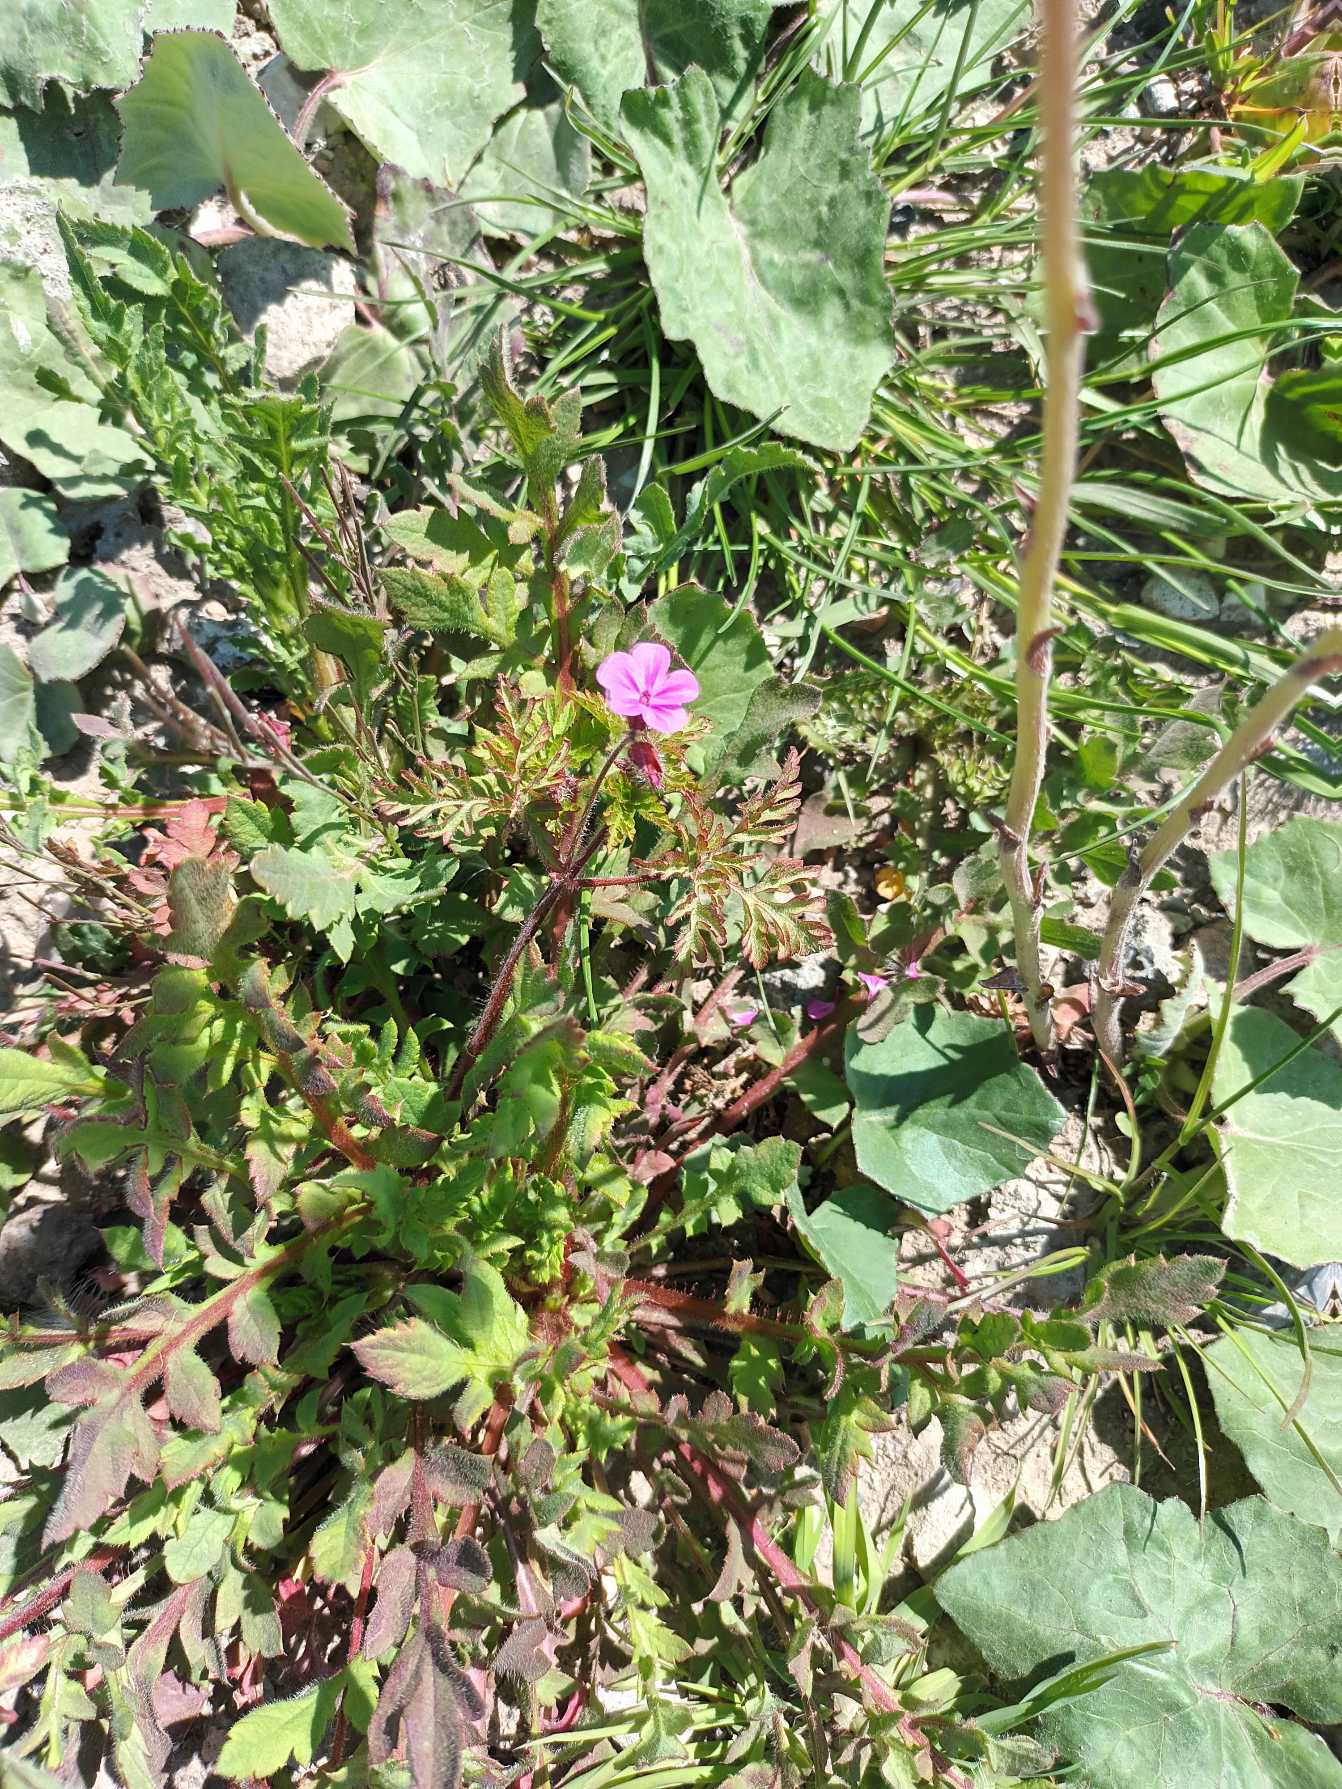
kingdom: Plantae
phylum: Tracheophyta
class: Magnoliopsida
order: Geraniales
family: Geraniaceae
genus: Geranium
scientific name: Geranium robertianum
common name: Stinkende storkenæb
